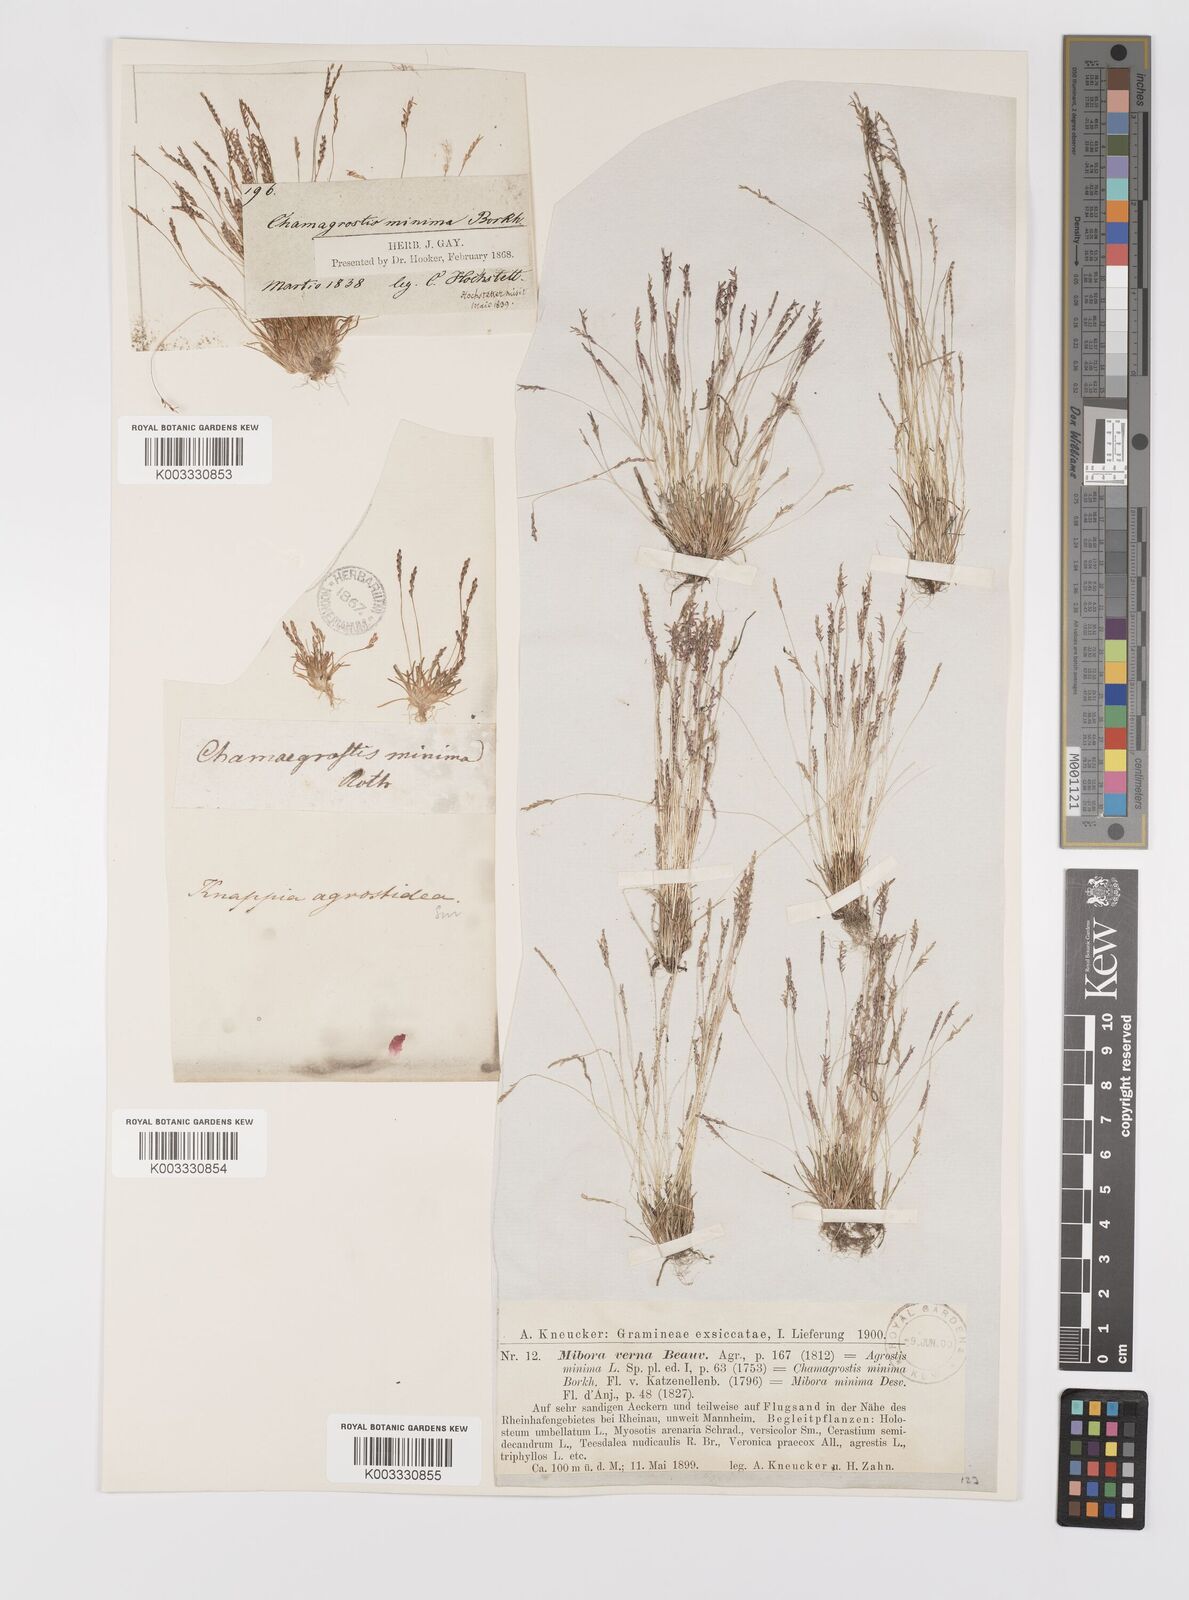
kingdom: Plantae
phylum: Tracheophyta
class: Liliopsida
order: Poales
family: Poaceae
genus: Mibora
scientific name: Mibora minima
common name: Early sand-grass
